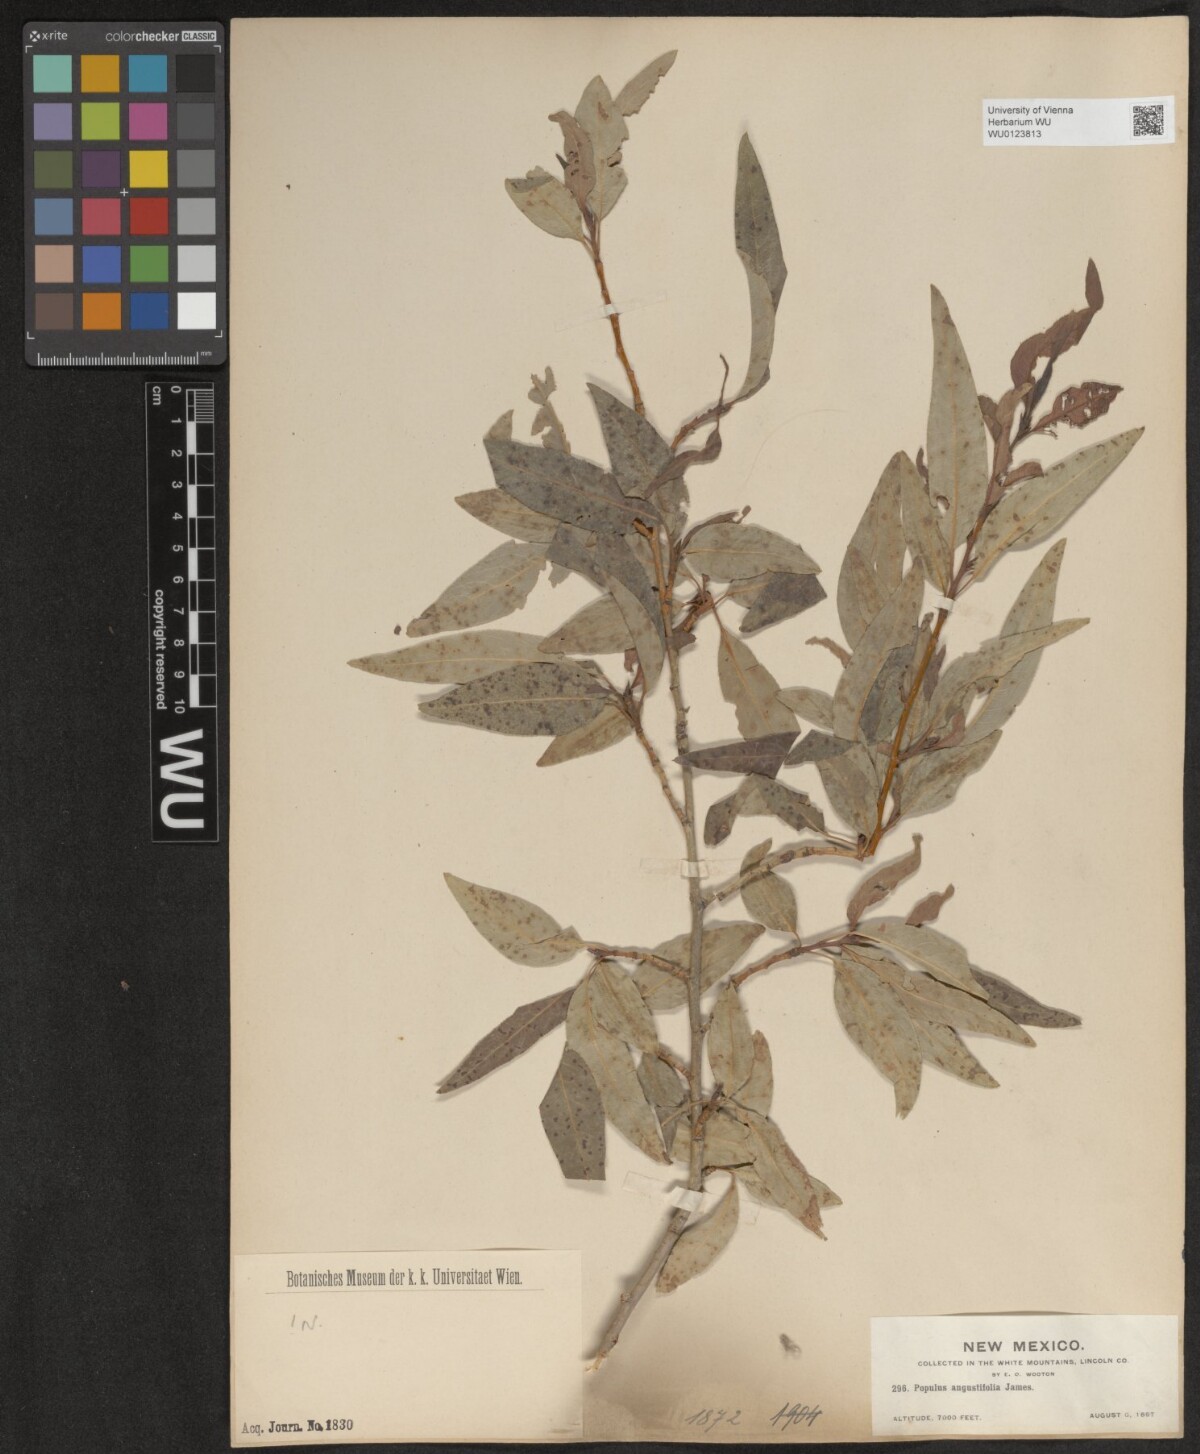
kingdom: Plantae
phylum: Tracheophyta
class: Magnoliopsida
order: Malpighiales
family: Salicaceae
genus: Populus
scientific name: Populus angustifolia
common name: Willow cottonwood
